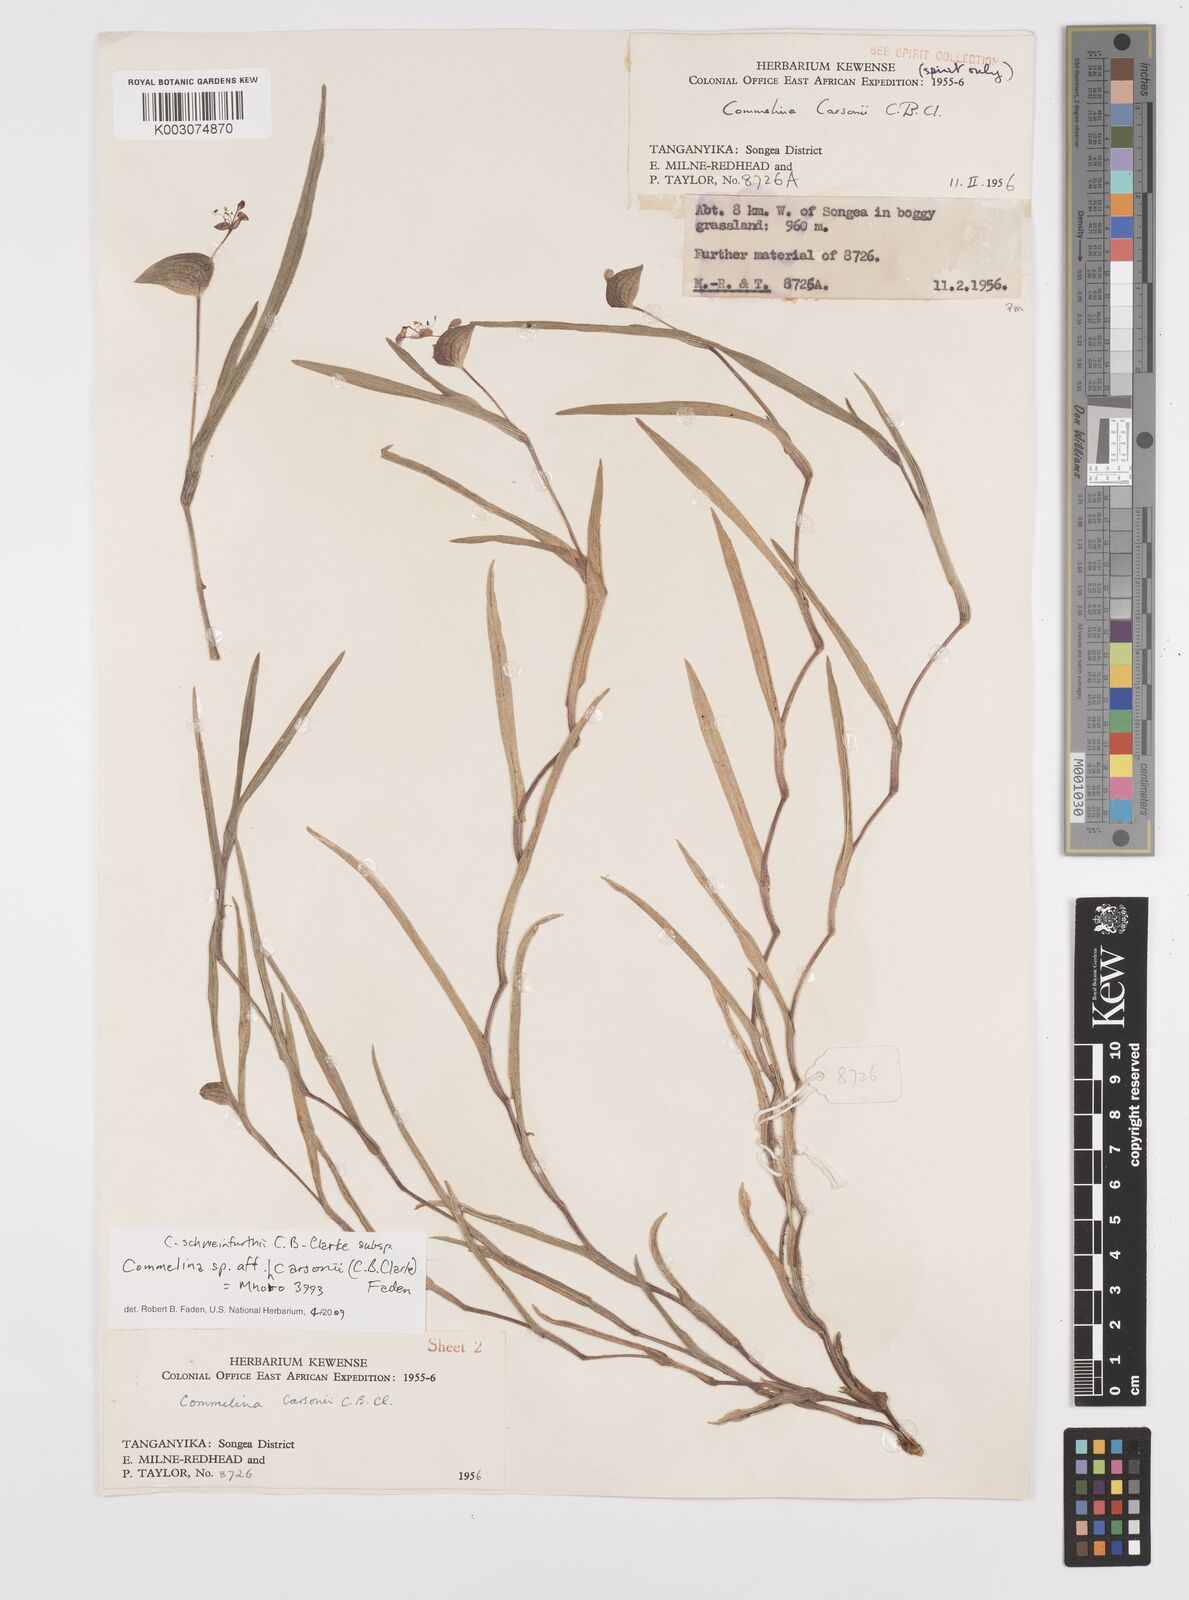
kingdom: Plantae
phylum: Tracheophyta
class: Liliopsida
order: Commelinales
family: Commelinaceae
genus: Commelina
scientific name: Commelina schweinfurthii
